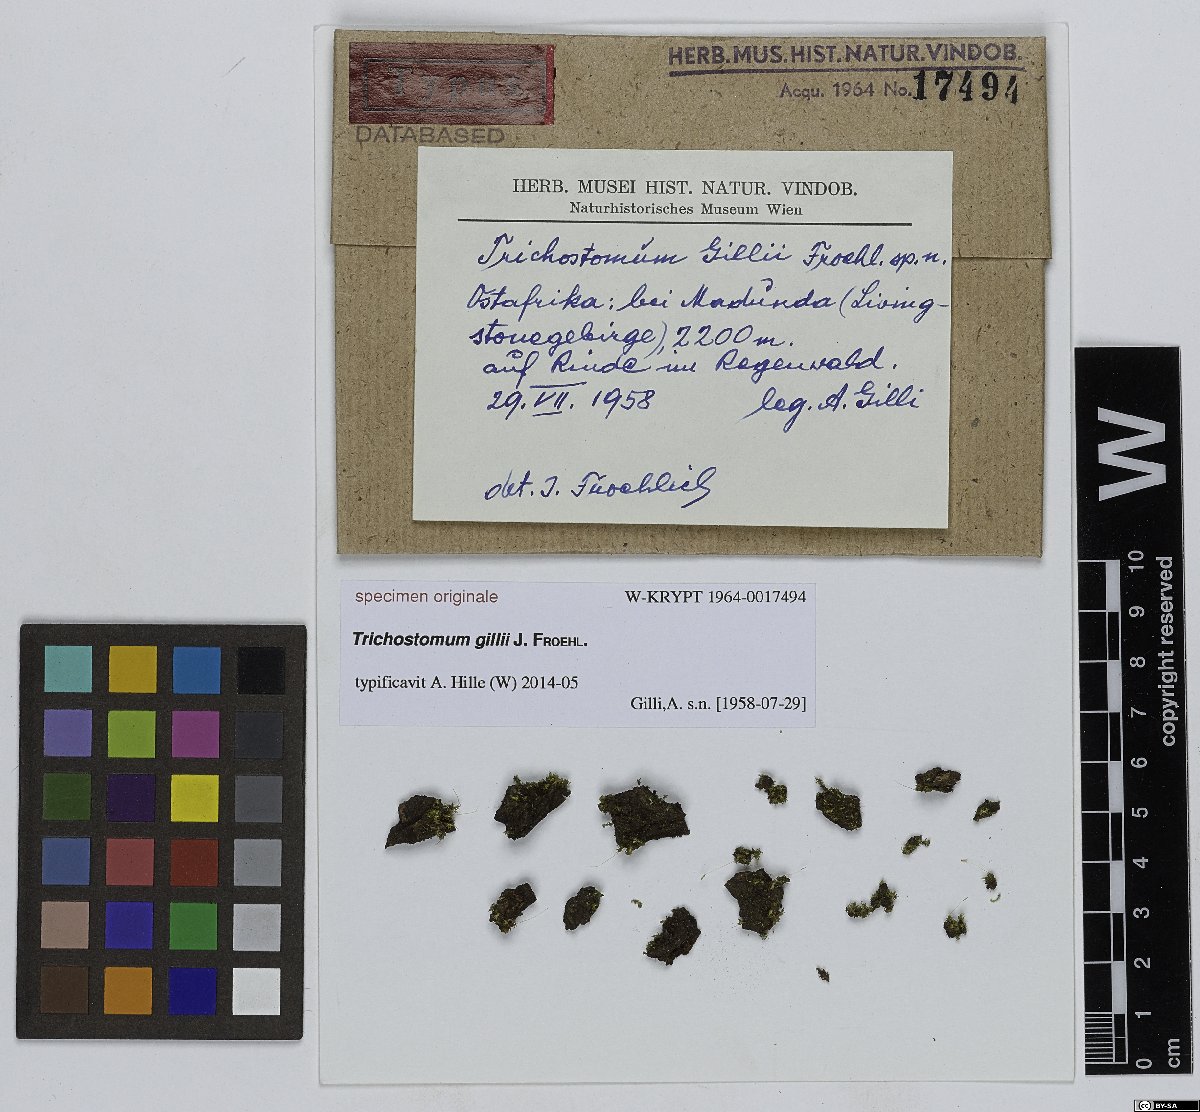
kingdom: Plantae
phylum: Bryophyta
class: Bryopsida
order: Pottiales
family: Pottiaceae
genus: Trichostomum
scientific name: Trichostomum
